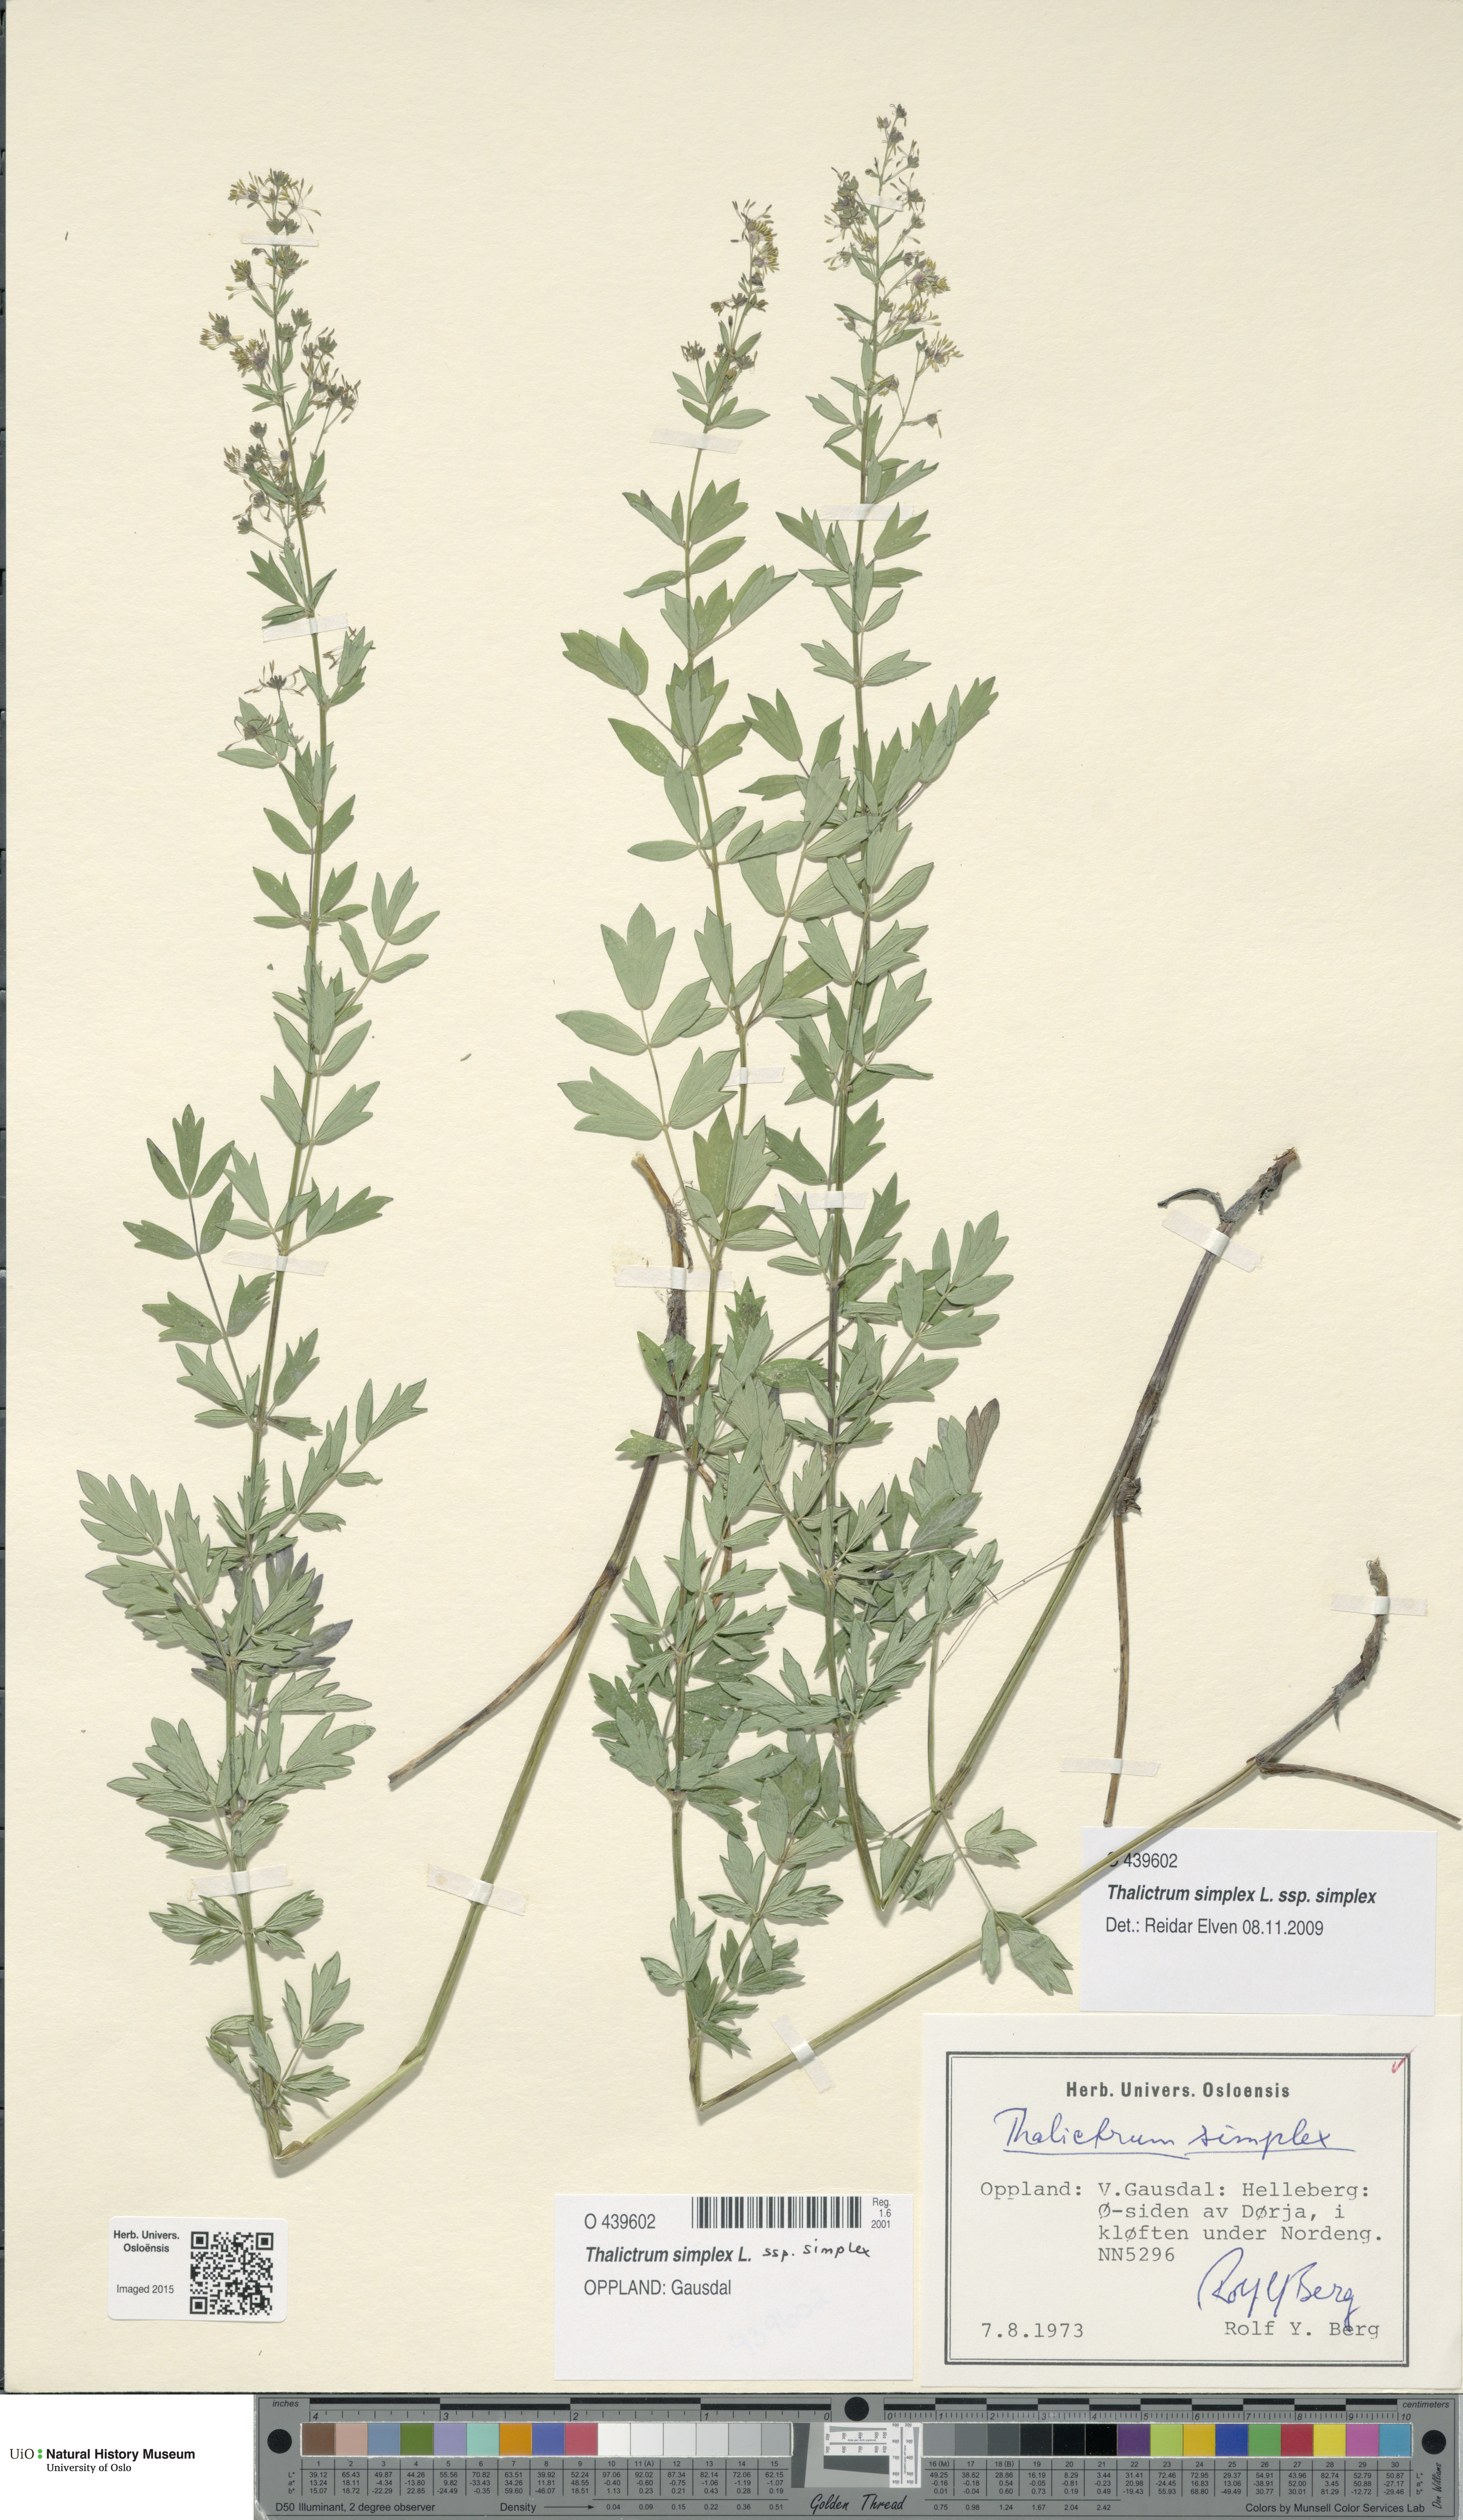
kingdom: Plantae
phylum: Tracheophyta
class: Magnoliopsida
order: Ranunculales
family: Ranunculaceae
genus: Thalictrum
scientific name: Thalictrum simplex
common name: Small meadow-rue
